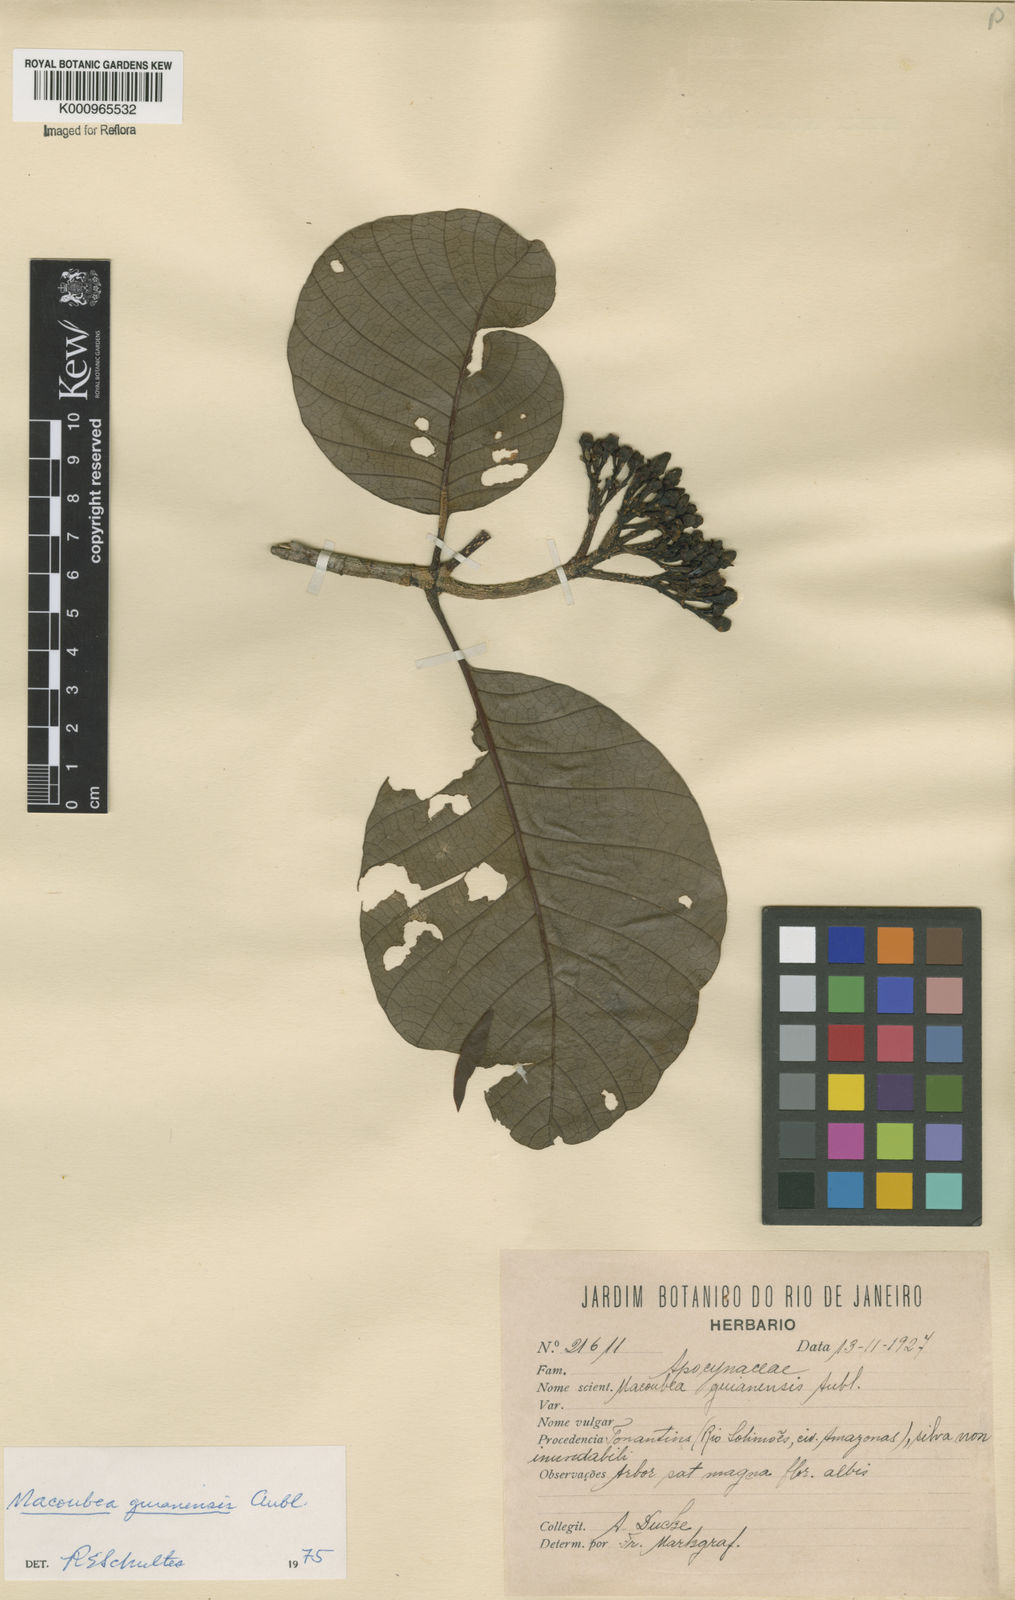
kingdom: Plantae
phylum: Tracheophyta
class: Magnoliopsida
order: Gentianales
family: Apocynaceae
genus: Macoubea
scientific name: Macoubea guianensis
